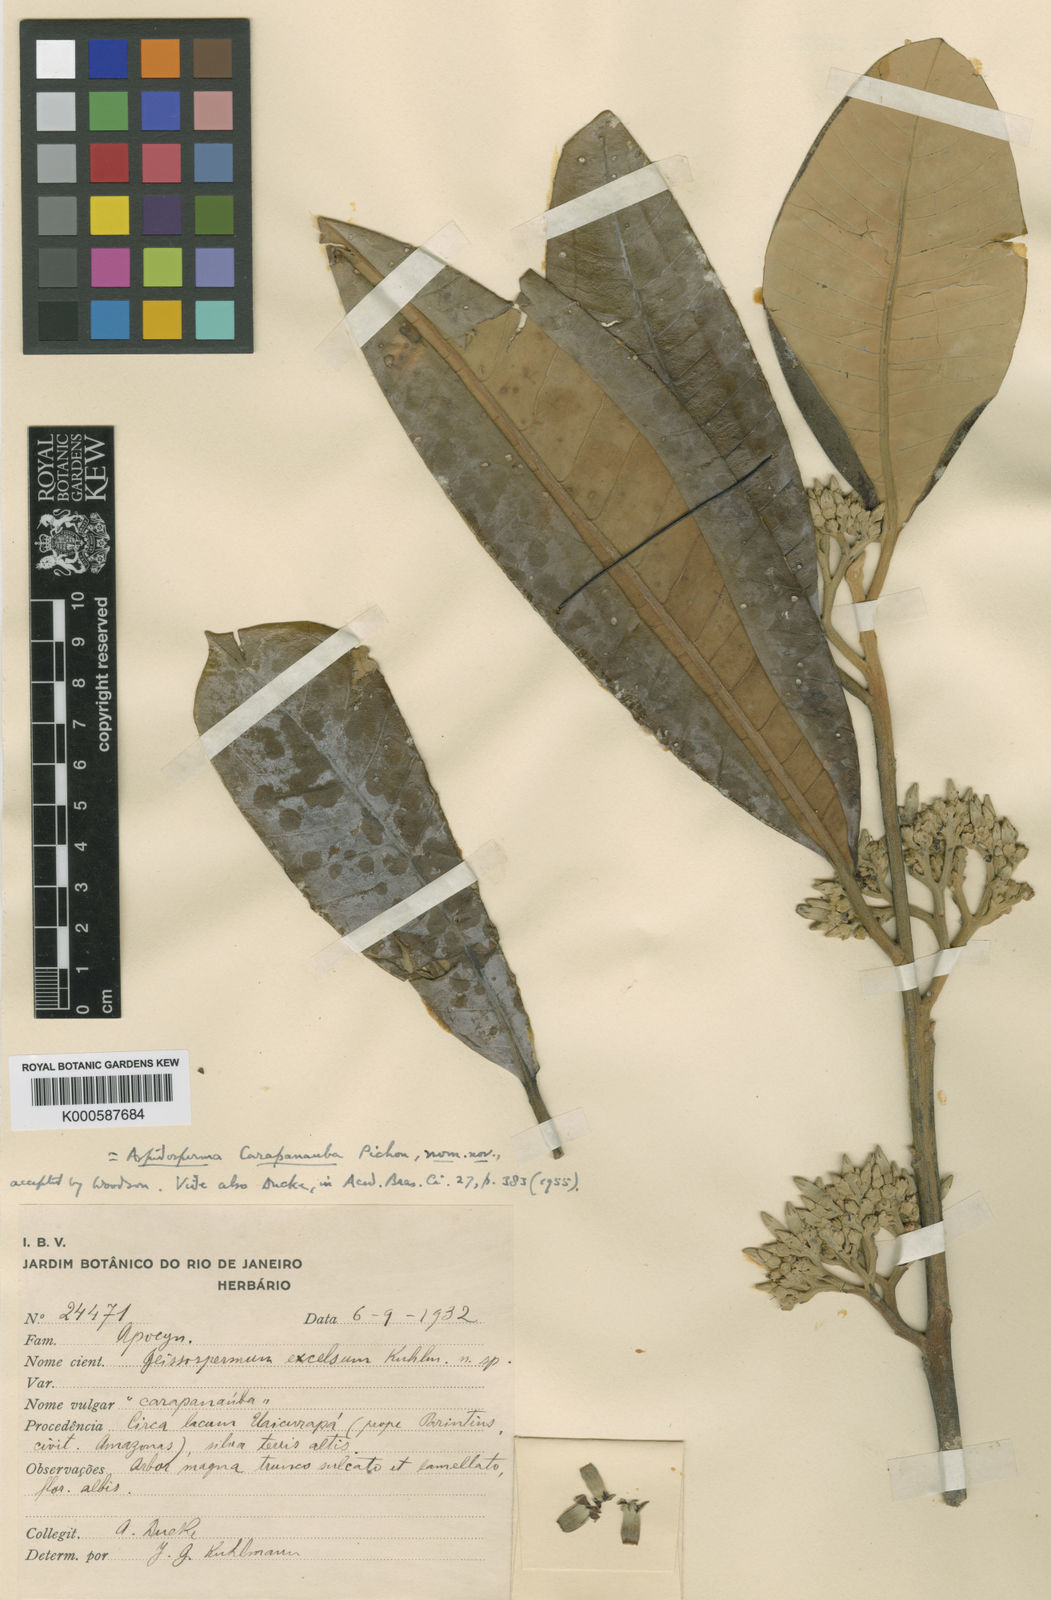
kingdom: Plantae
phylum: Tracheophyta
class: Magnoliopsida
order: Gentianales
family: Apocynaceae
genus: Aspidosperma
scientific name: Aspidosperma carapanauba
